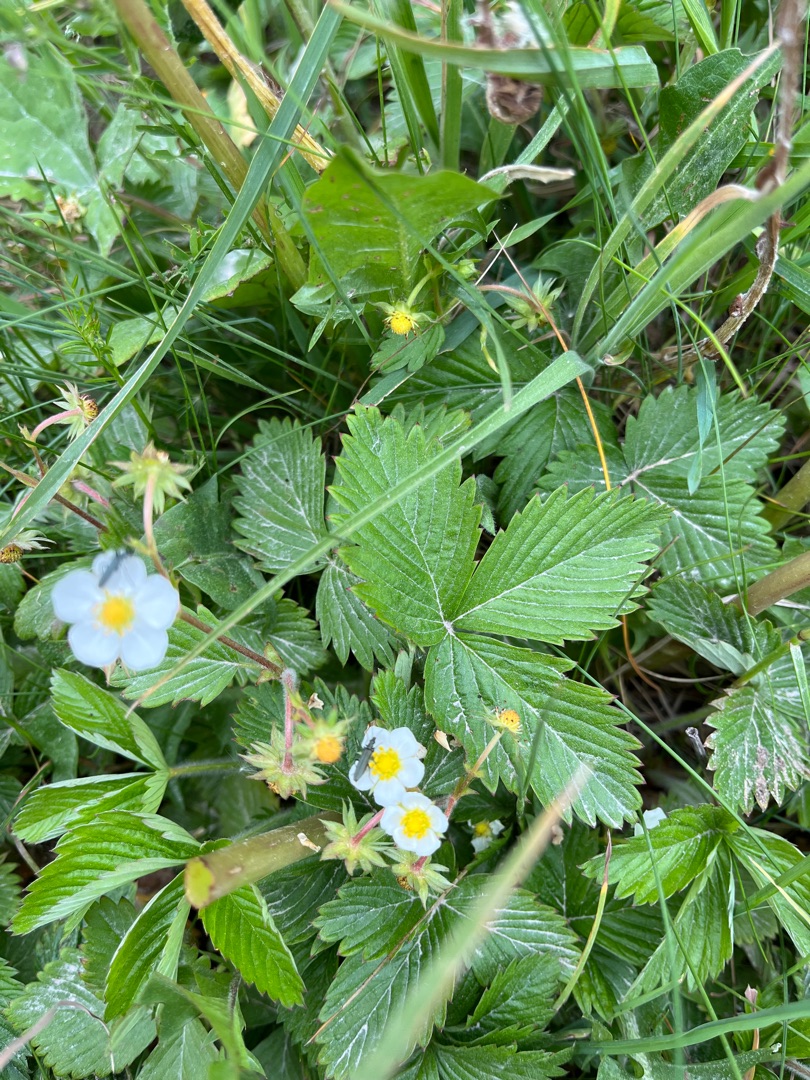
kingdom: Plantae
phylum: Tracheophyta
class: Magnoliopsida
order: Rosales
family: Rosaceae
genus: Fragaria
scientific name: Fragaria vesca
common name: Skov-jordbær
